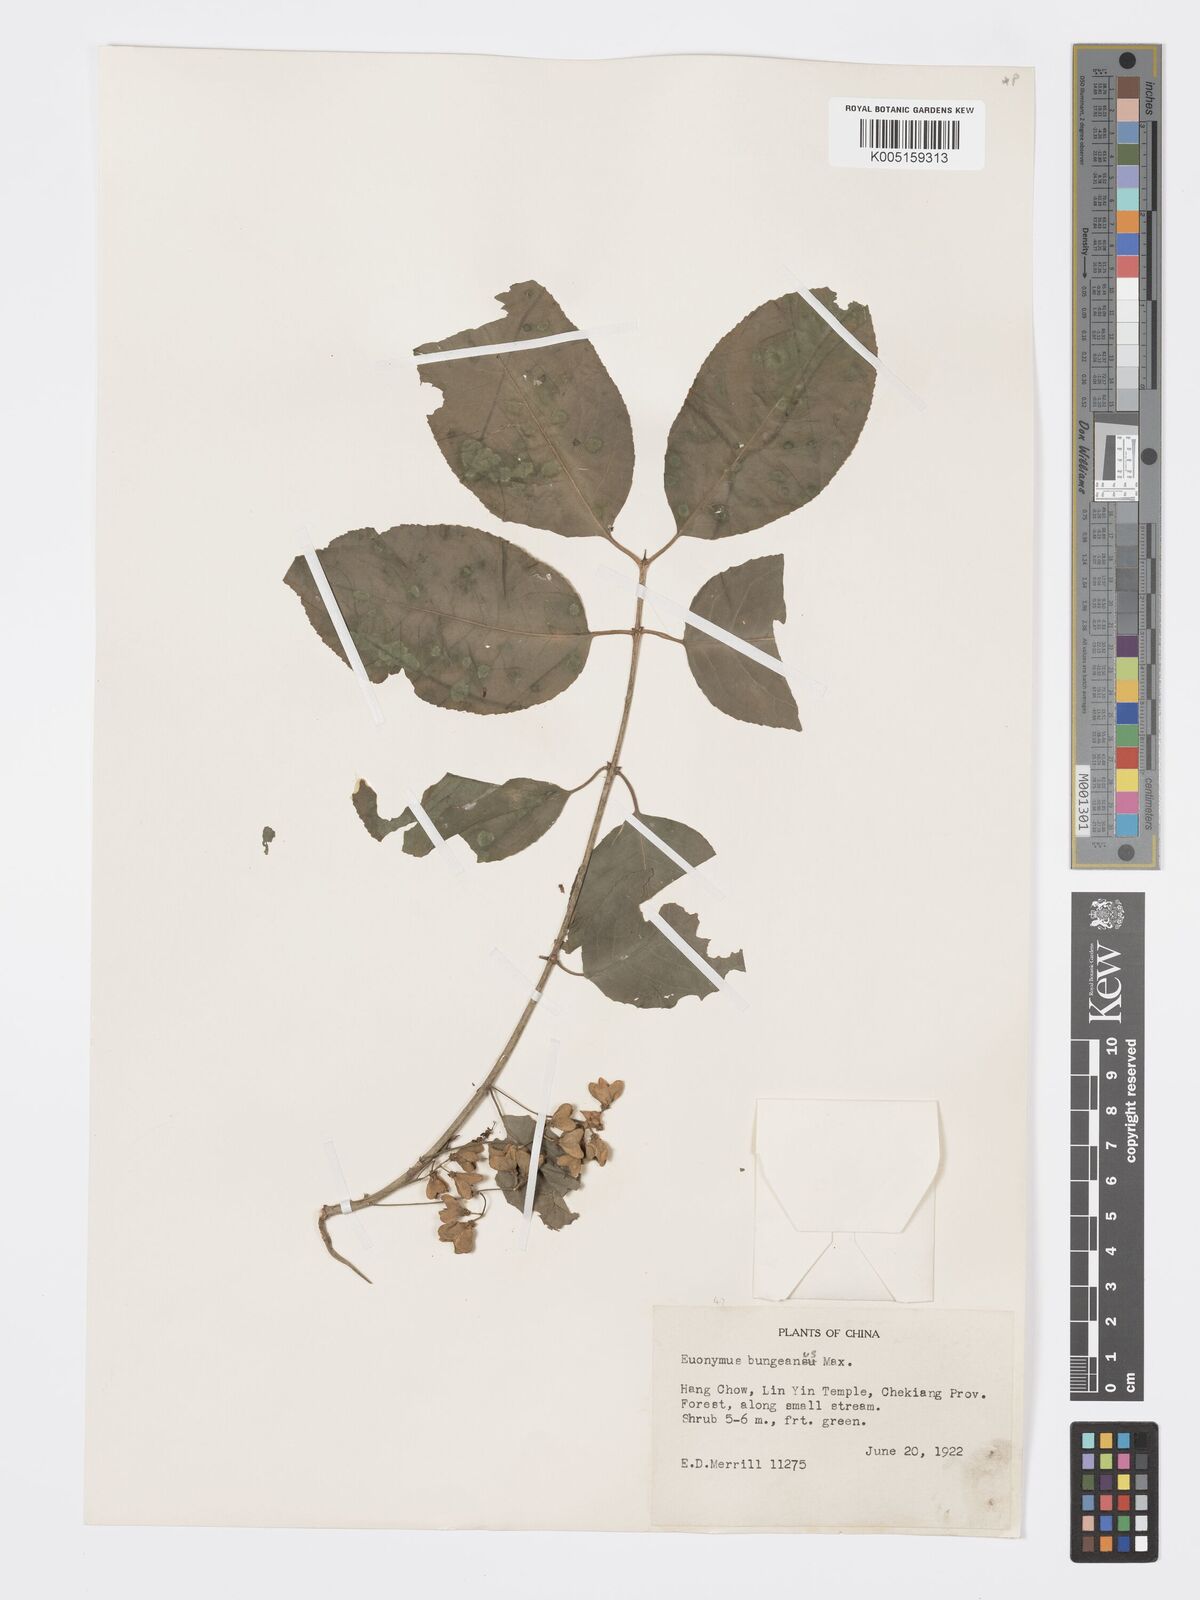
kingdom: Plantae
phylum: Tracheophyta
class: Magnoliopsida
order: Celastrales
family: Celastraceae
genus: Euonymus
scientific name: Euonymus maackii
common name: Hamilton's spindletree
